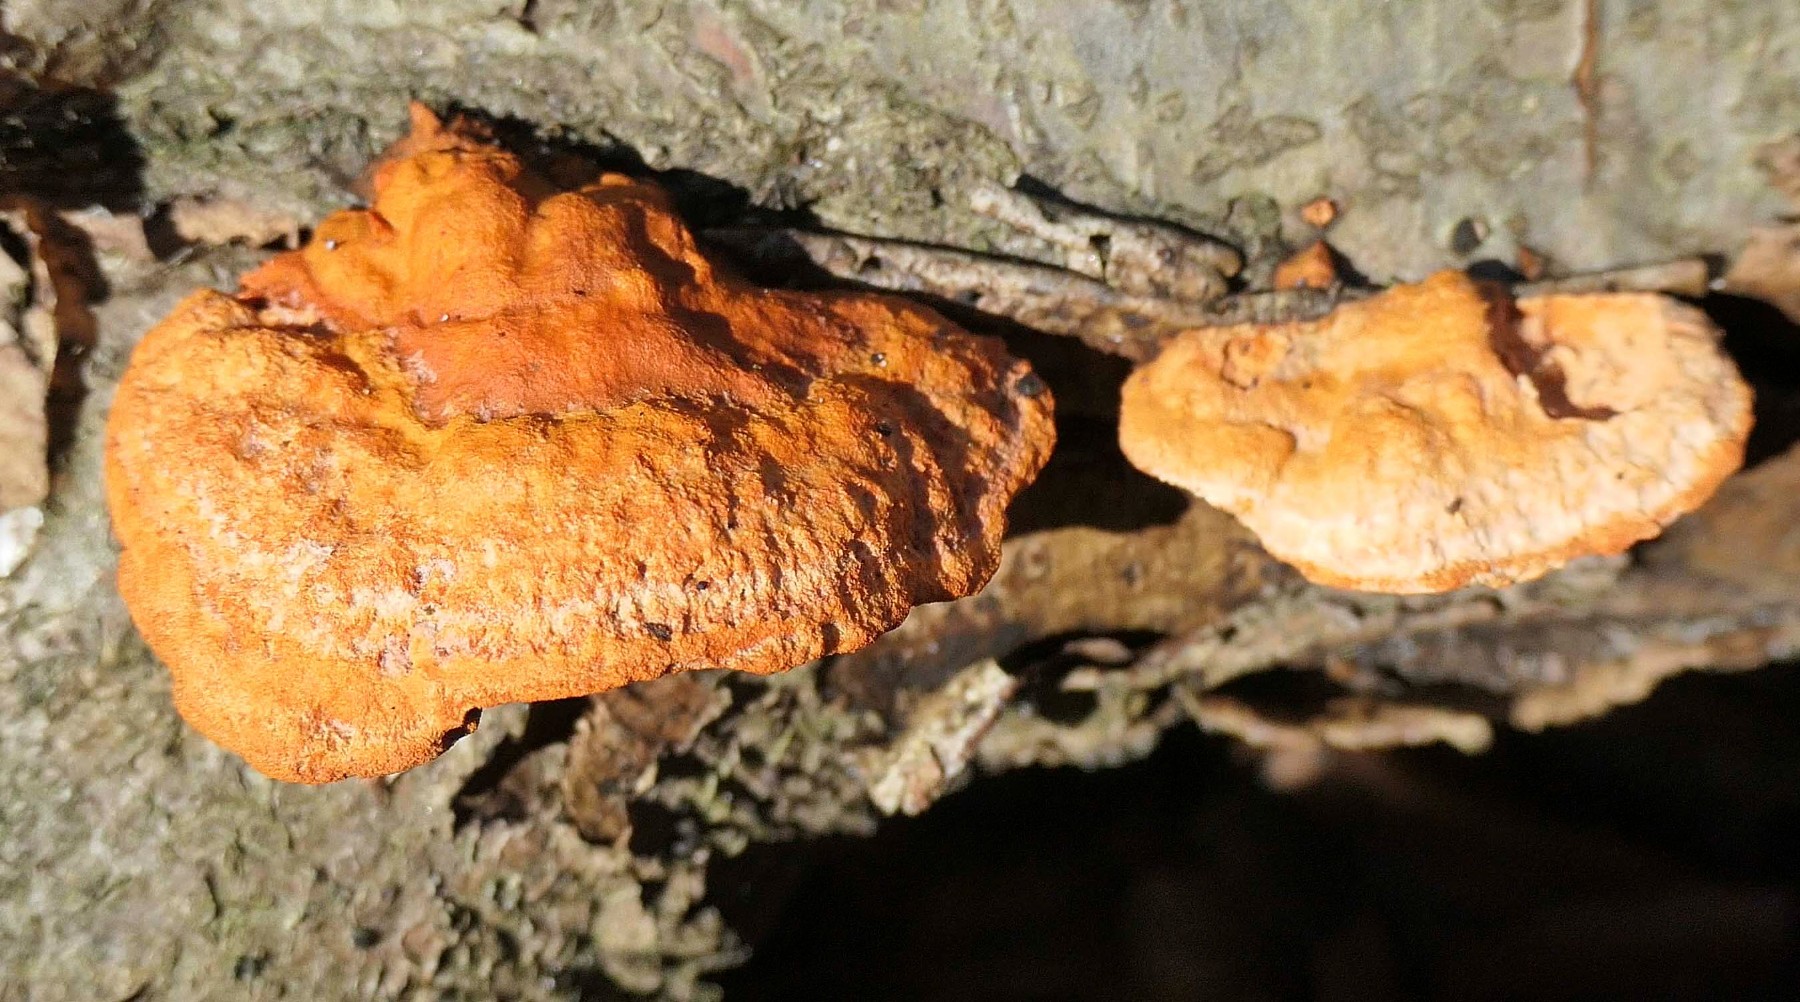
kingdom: Fungi
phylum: Basidiomycota
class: Agaricomycetes
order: Polyporales
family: Polyporaceae
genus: Trametes
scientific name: Trametes cinnabarina
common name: cinnoberporesvamp
